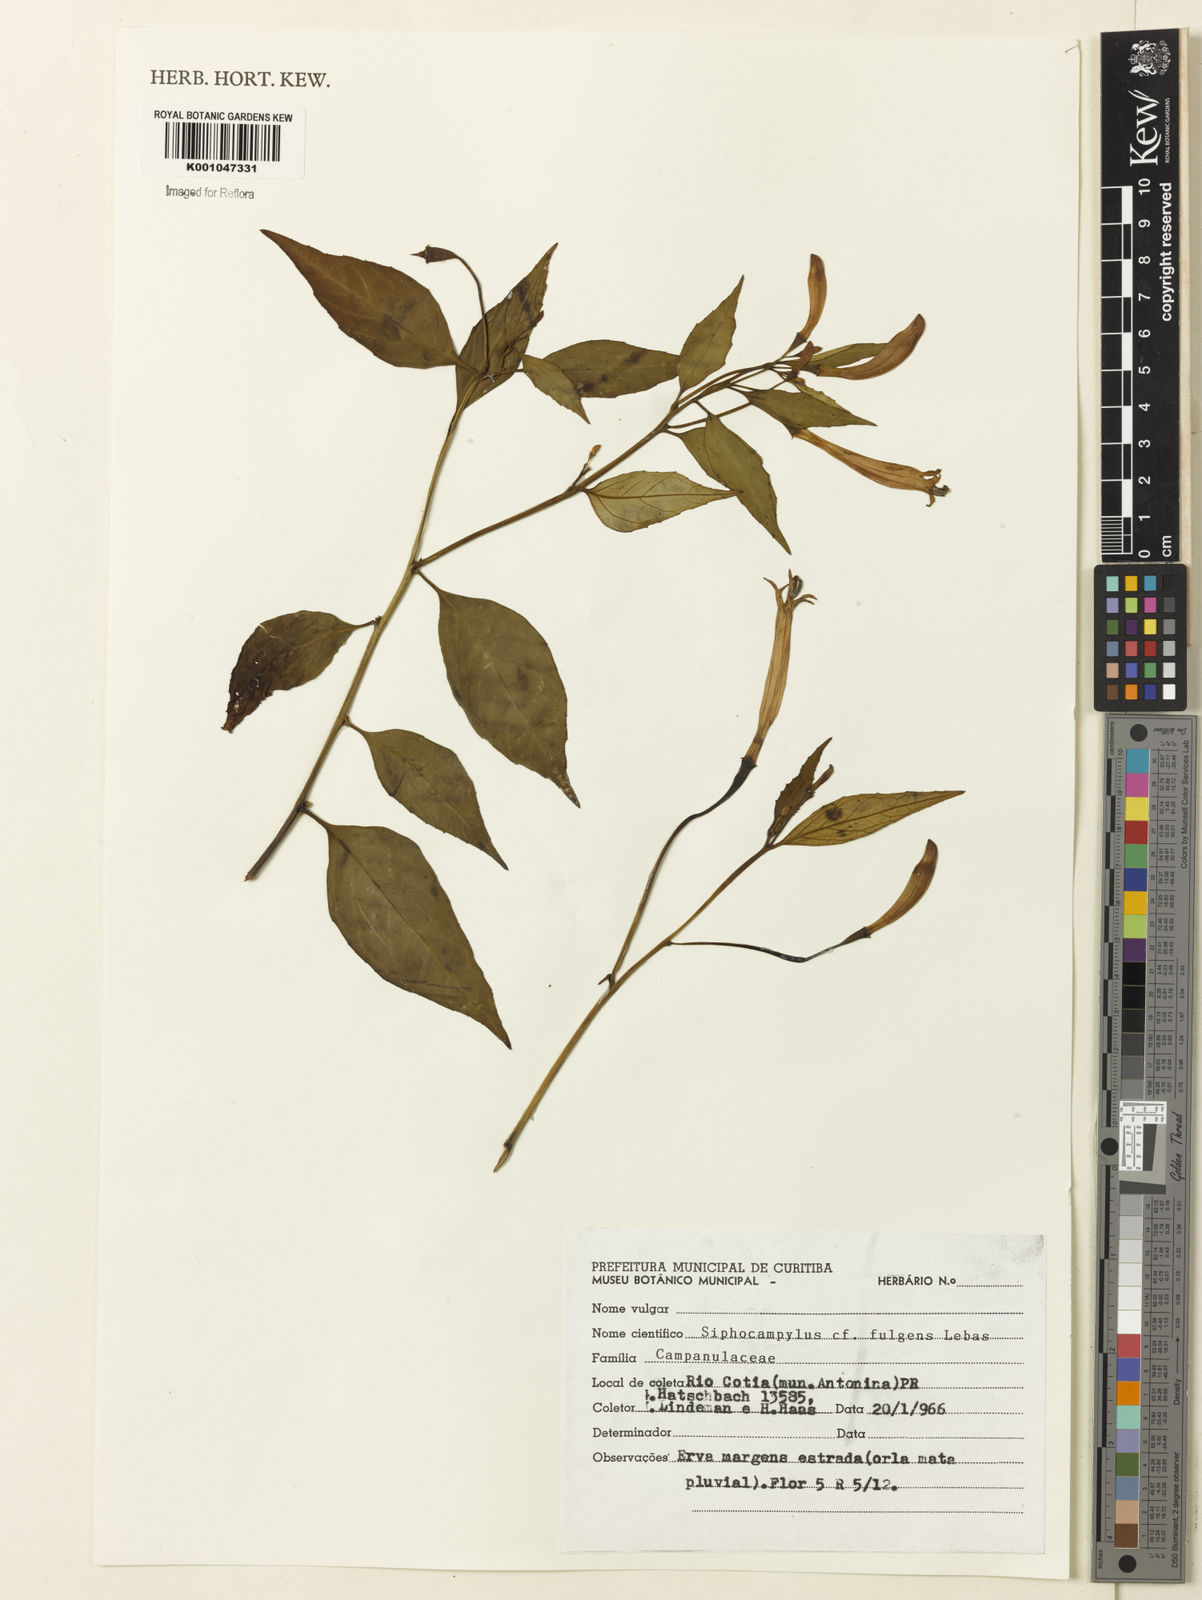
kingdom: Plantae
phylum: Tracheophyta
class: Magnoliopsida
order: Asterales
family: Campanulaceae
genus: Siphocampylus
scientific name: Siphocampylus
